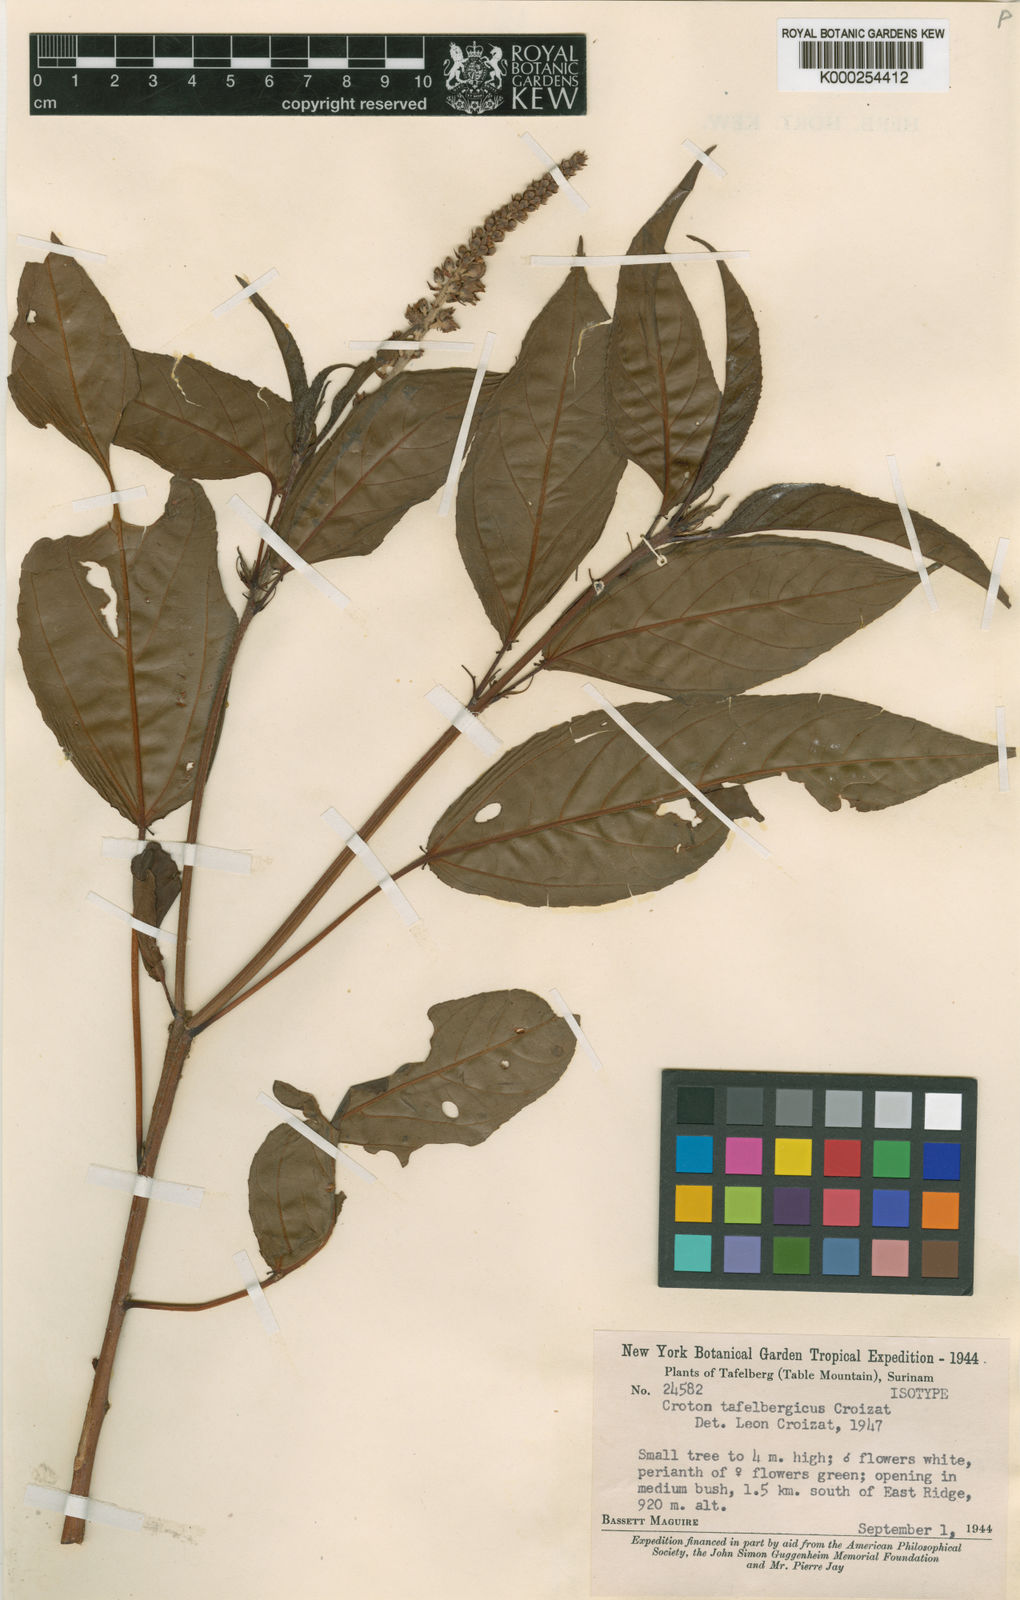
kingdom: Plantae
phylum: Tracheophyta
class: Magnoliopsida
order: Malpighiales
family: Euphorbiaceae
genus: Croton
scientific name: Croton guianensis
